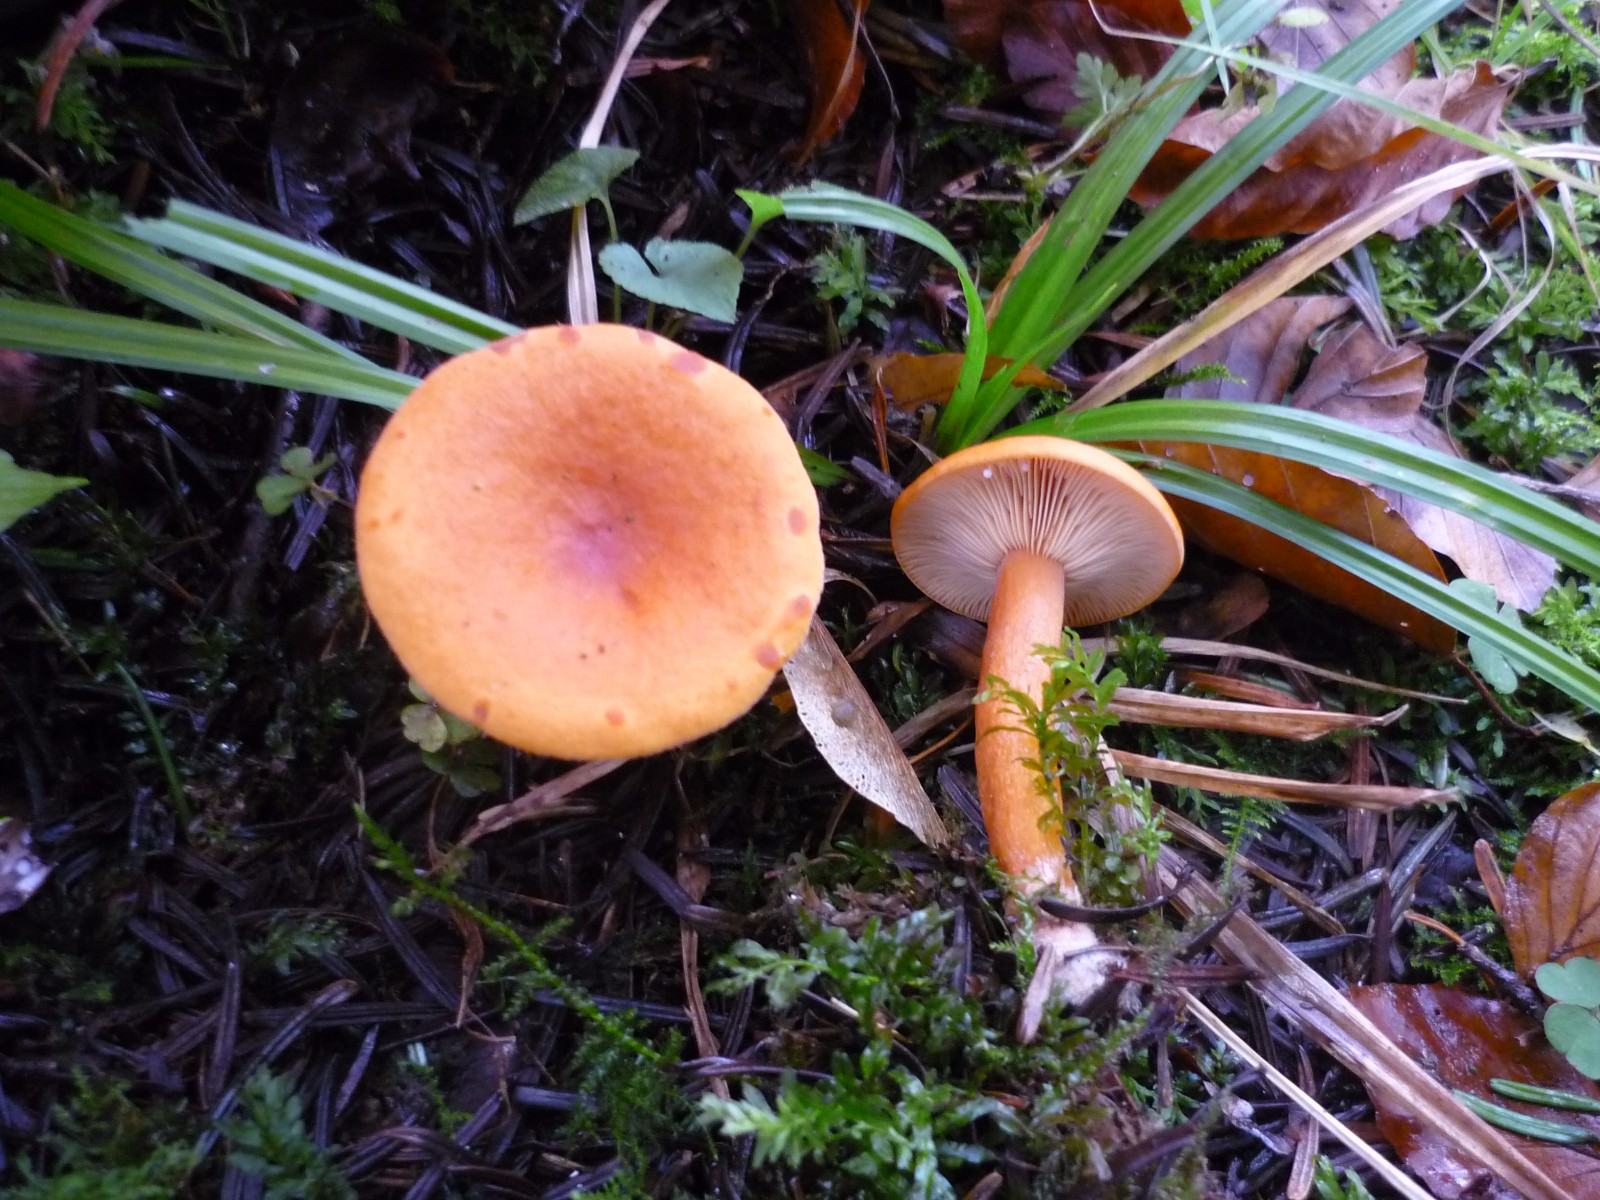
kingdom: Fungi
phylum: Basidiomycota
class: Agaricomycetes
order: Russulales
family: Russulaceae
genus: Lactarius
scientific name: Lactarius aurantiacus
